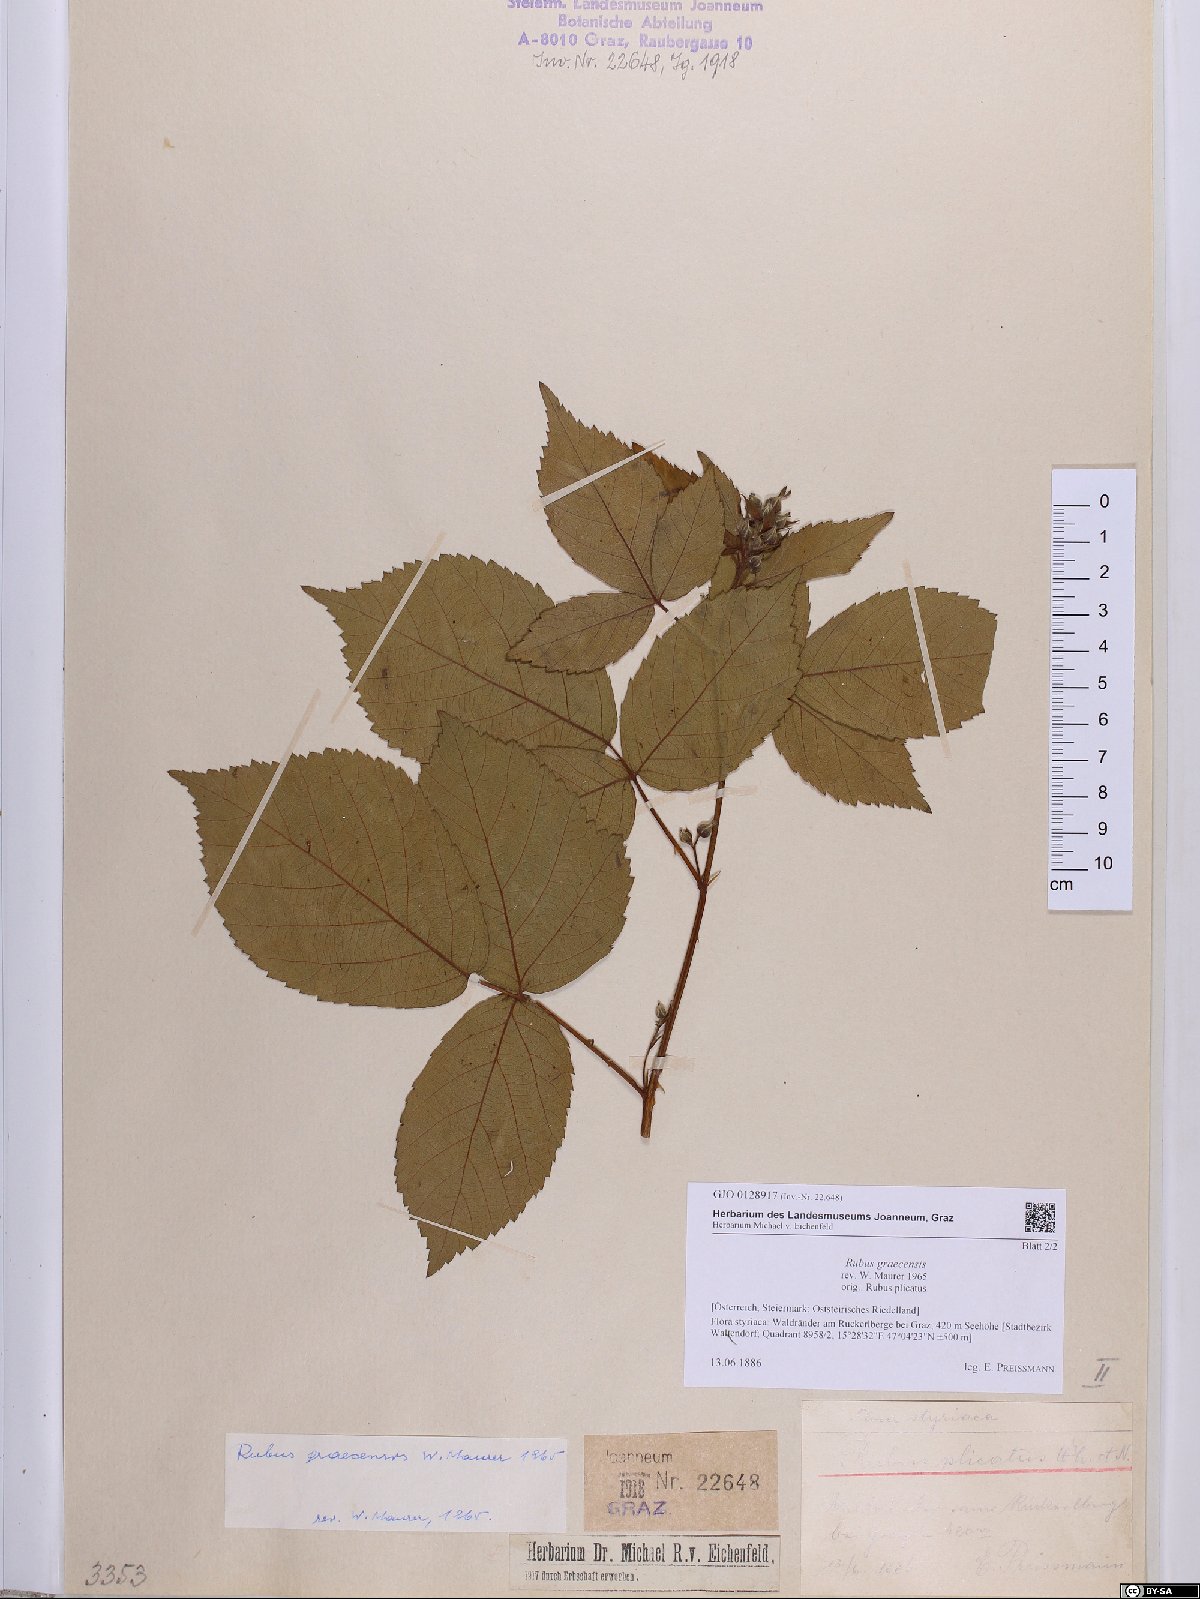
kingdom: Plantae
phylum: Tracheophyta
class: Magnoliopsida
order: Rosales
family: Rosaceae
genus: Rubus
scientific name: Rubus graecensis
